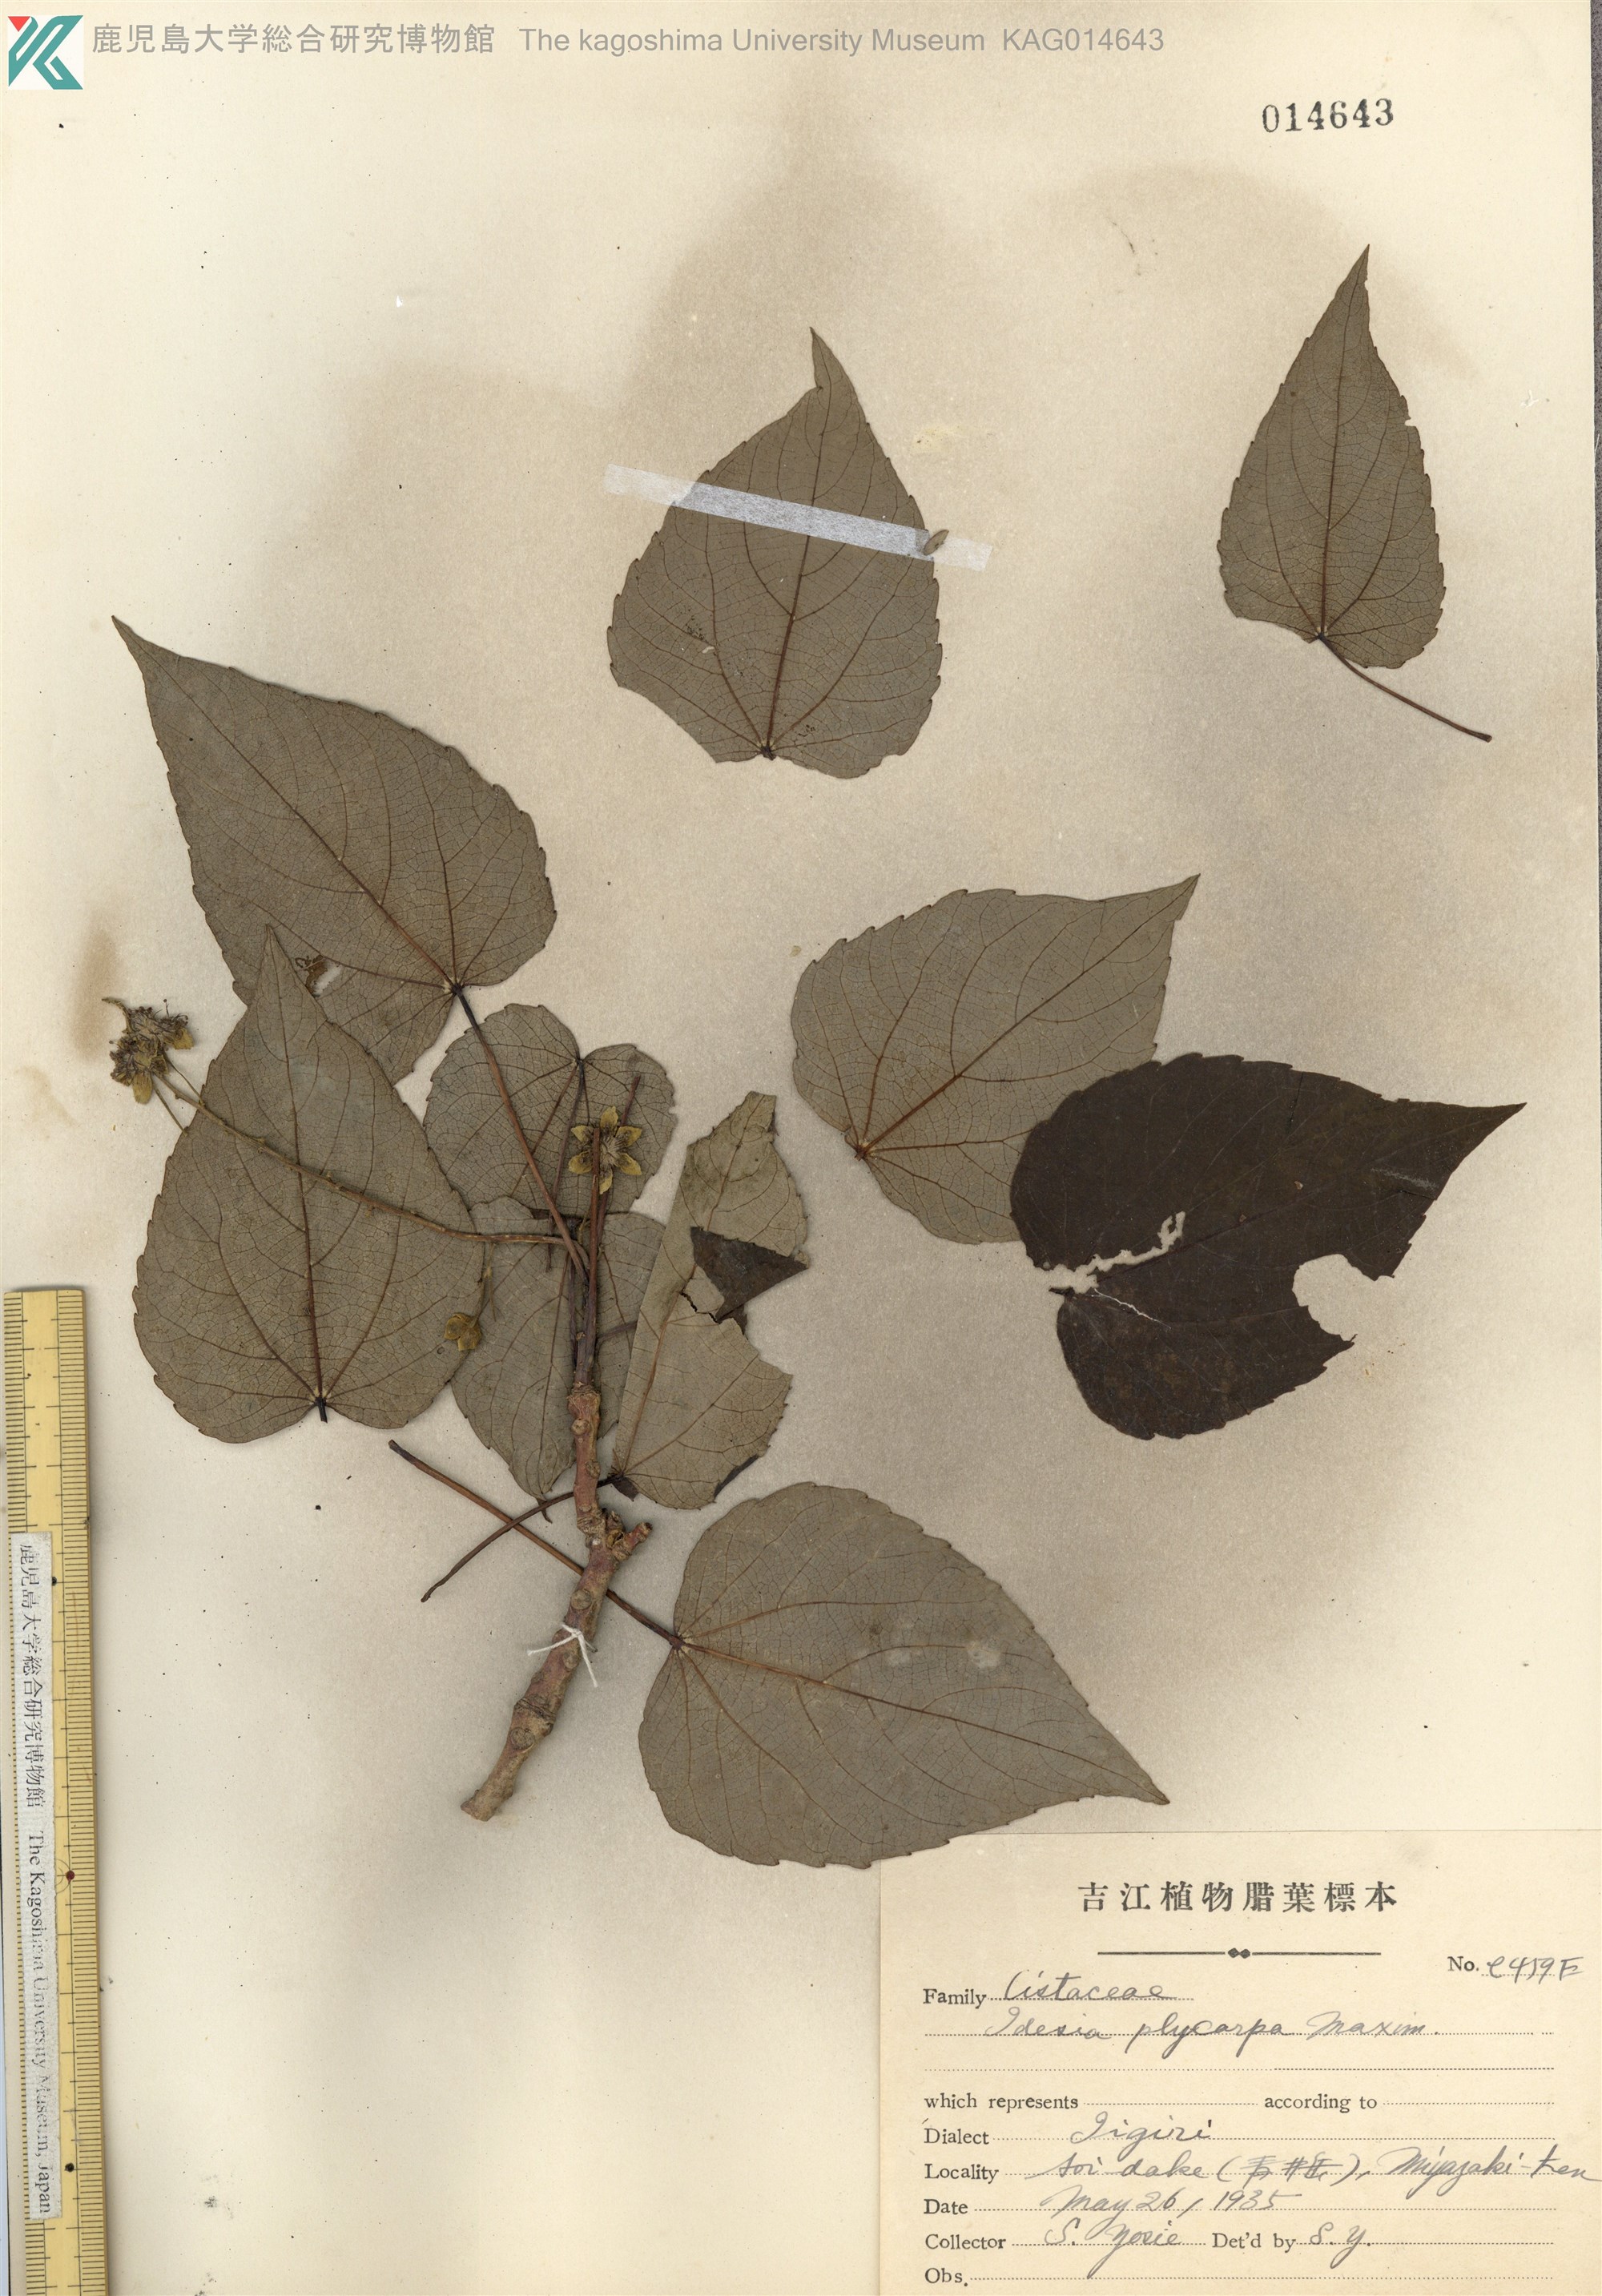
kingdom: Plantae
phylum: Tracheophyta
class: Magnoliopsida
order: Malpighiales
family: Salicaceae
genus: Idesia
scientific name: Idesia polycarpa
